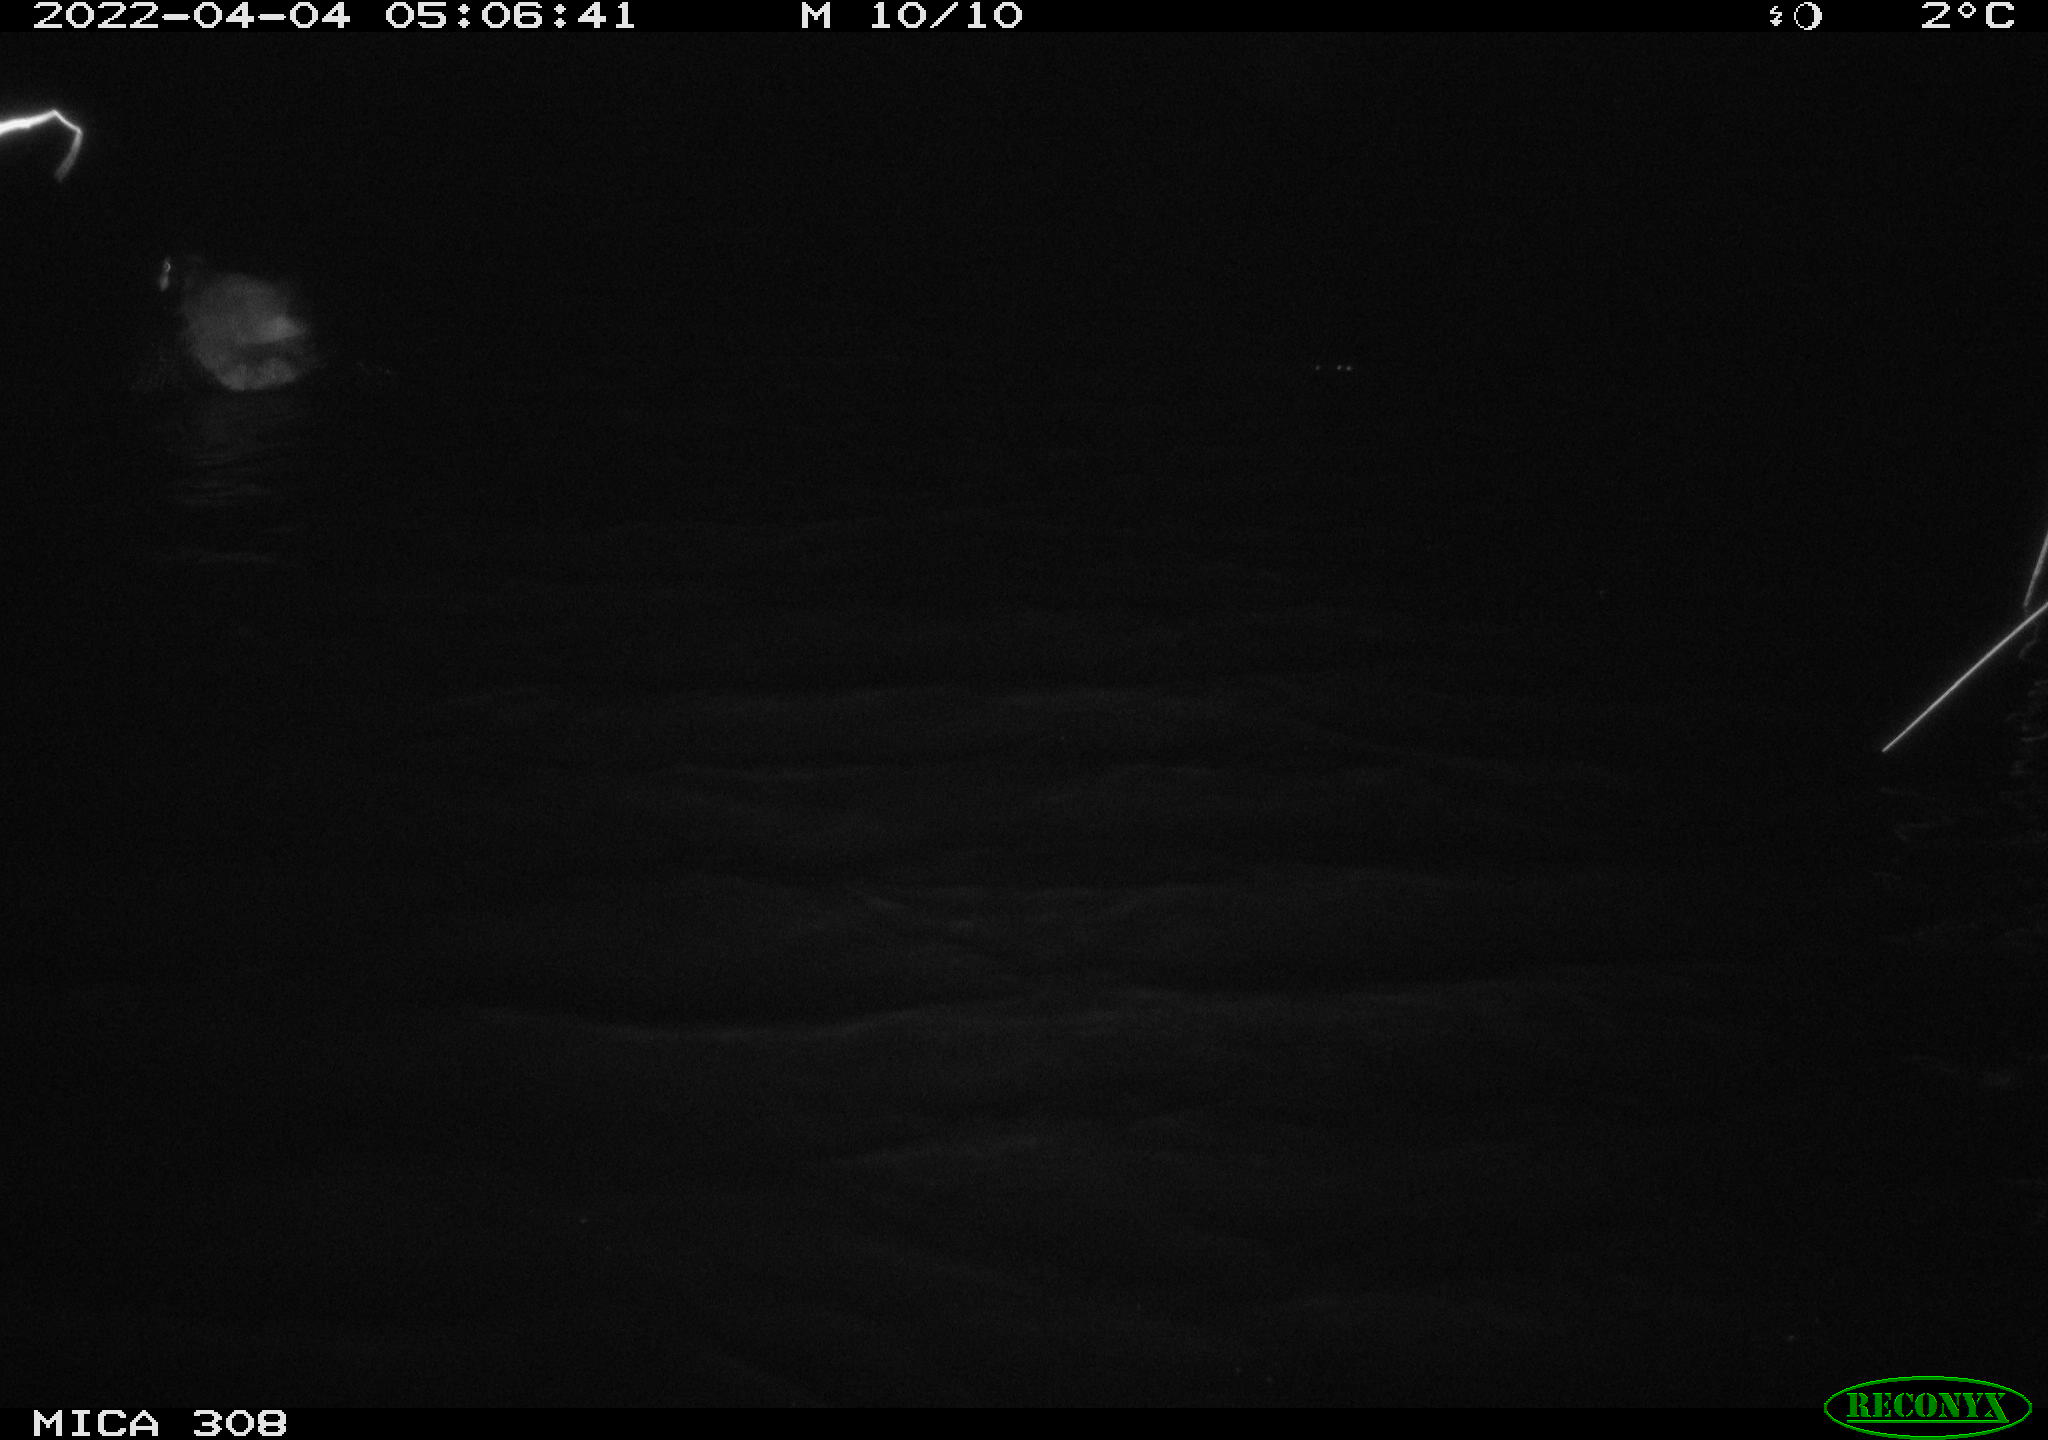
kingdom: Animalia
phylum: Chordata
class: Aves
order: Gruiformes
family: Rallidae
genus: Fulica
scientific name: Fulica atra
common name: Eurasian coot
